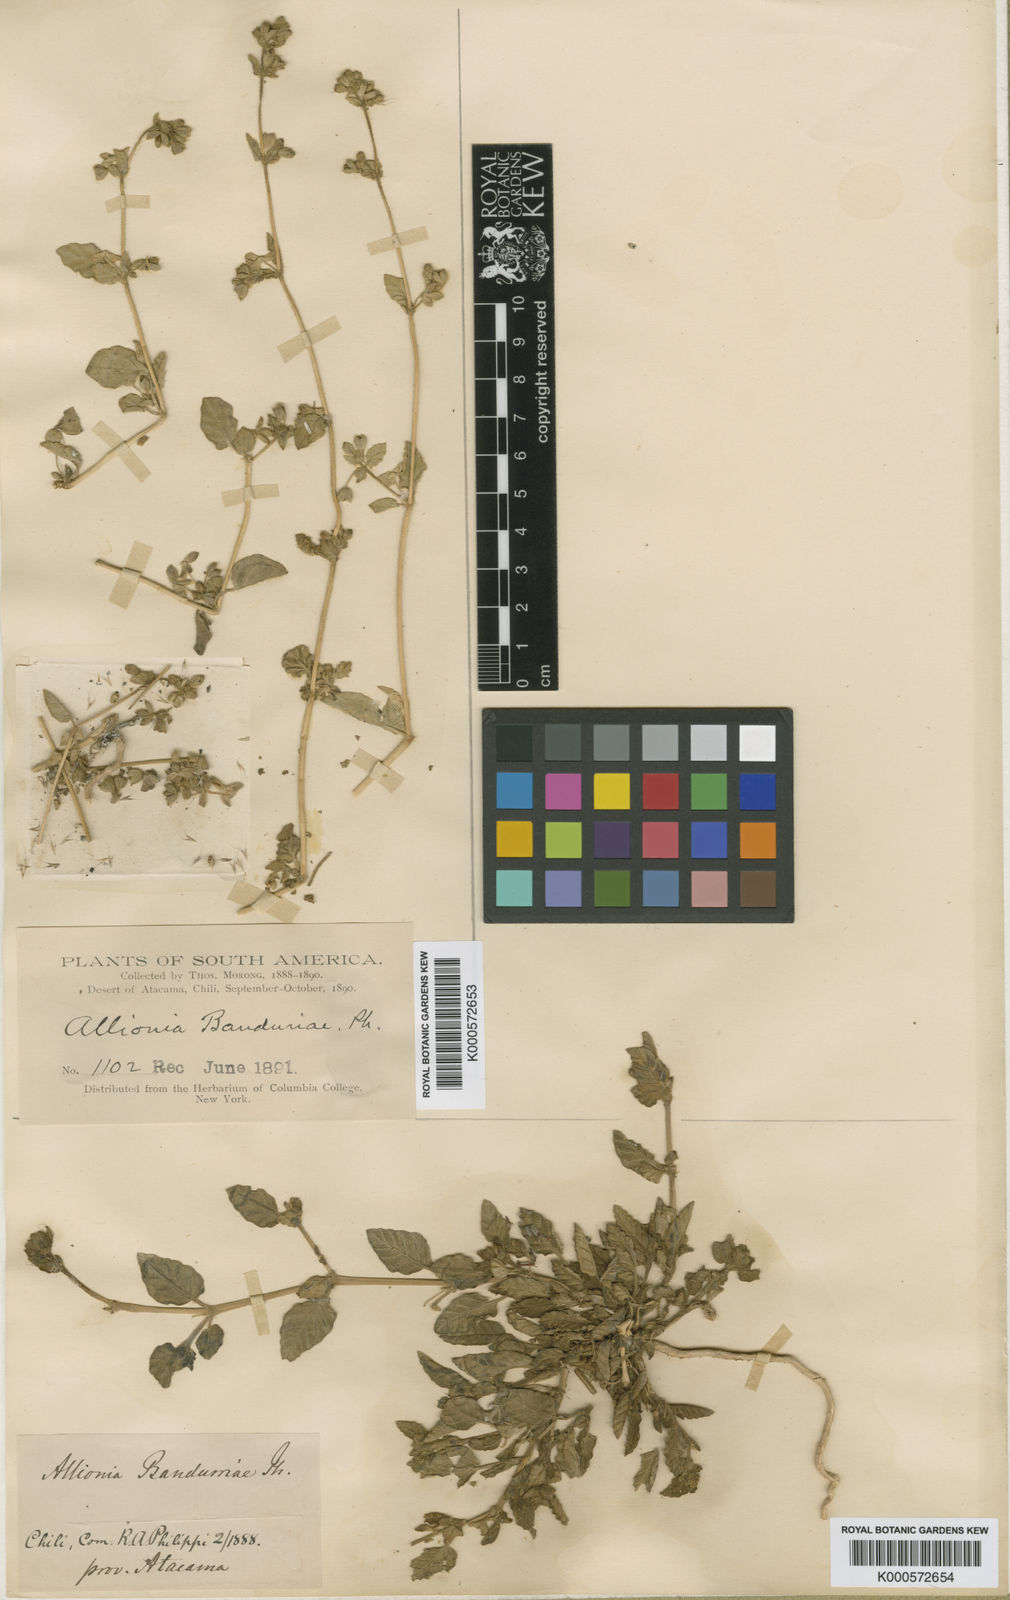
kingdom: Plantae
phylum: Tracheophyta
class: Magnoliopsida
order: Caryophyllales
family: Nyctaginaceae
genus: Allionia
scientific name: Allionia
